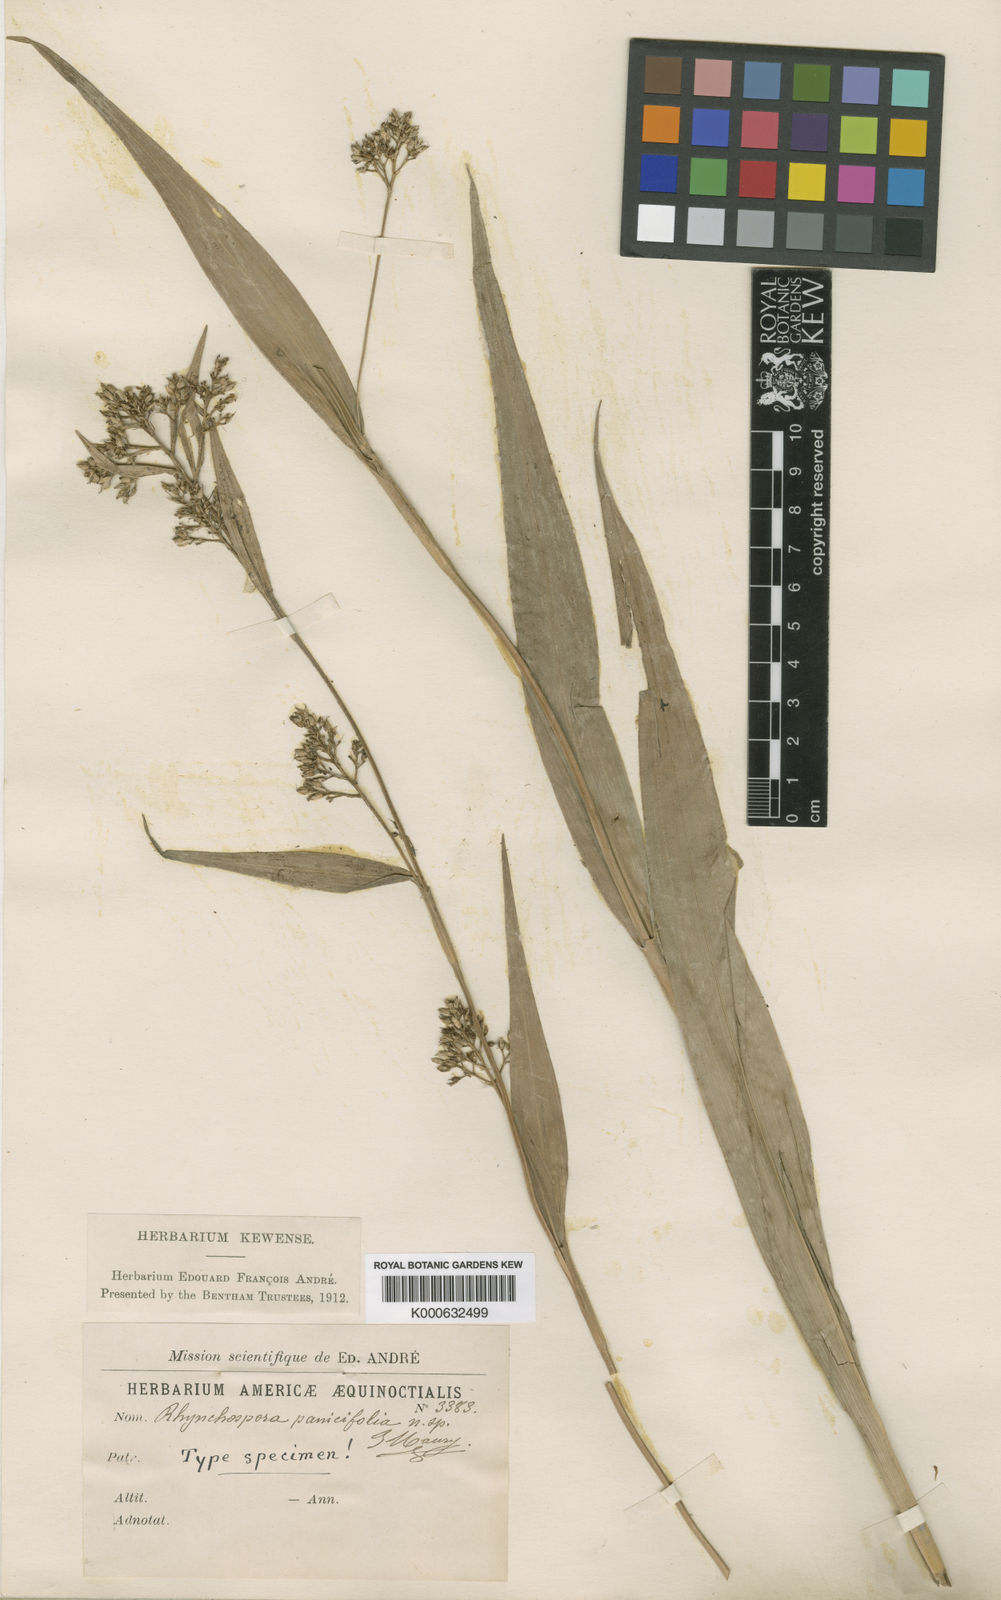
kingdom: Plantae
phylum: Tracheophyta
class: Liliopsida
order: Poales
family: Cyperaceae
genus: Rhynchospora
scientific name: Rhynchospora panicifolia
